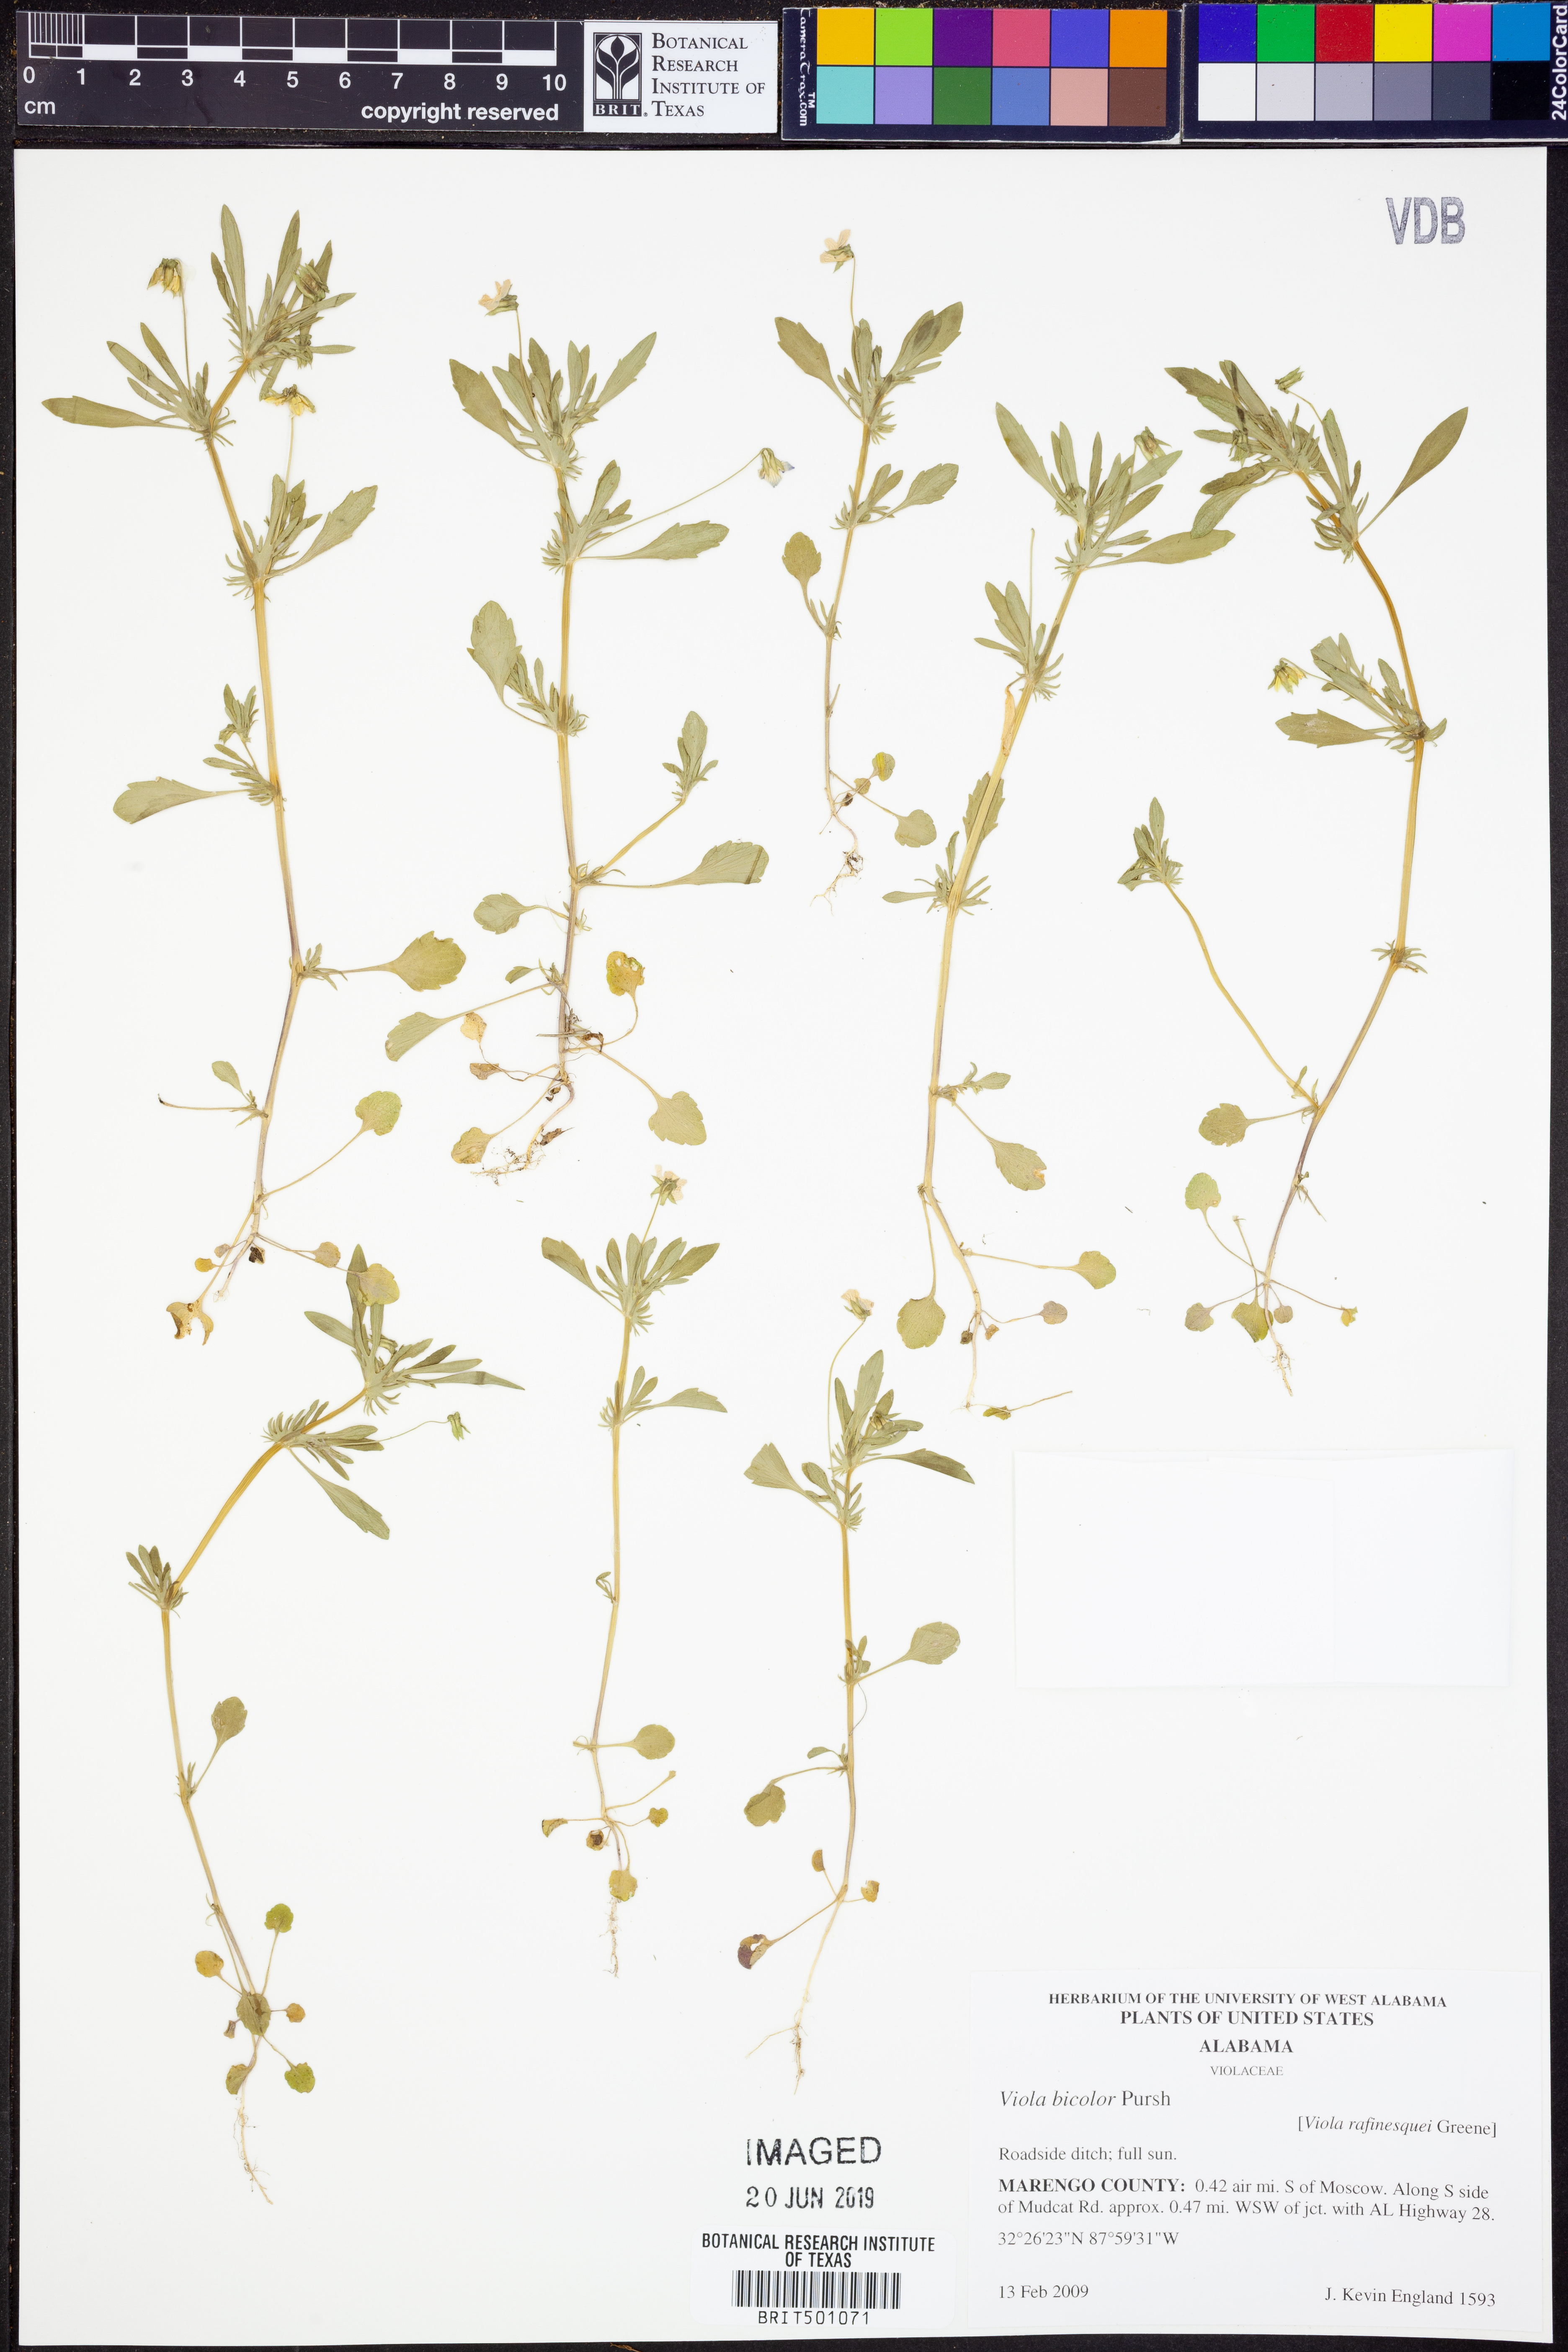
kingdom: Plantae
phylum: Tracheophyta
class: Magnoliopsida
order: Malpighiales
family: Violaceae
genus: Viola
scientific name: Viola rafinesquei
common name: American field pansy
